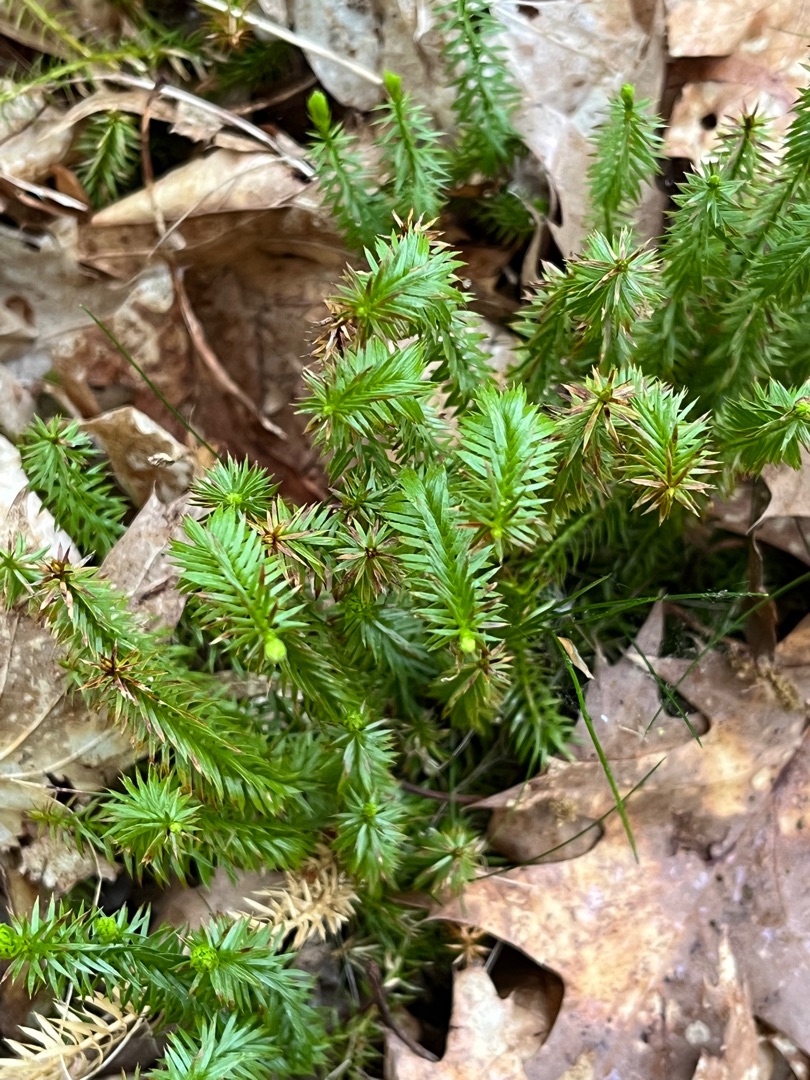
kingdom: Plantae
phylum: Tracheophyta
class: Lycopodiopsida
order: Lycopodiales
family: Lycopodiaceae
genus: Spinulum
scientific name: Spinulum annotinum
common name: Femradet ulvefod
